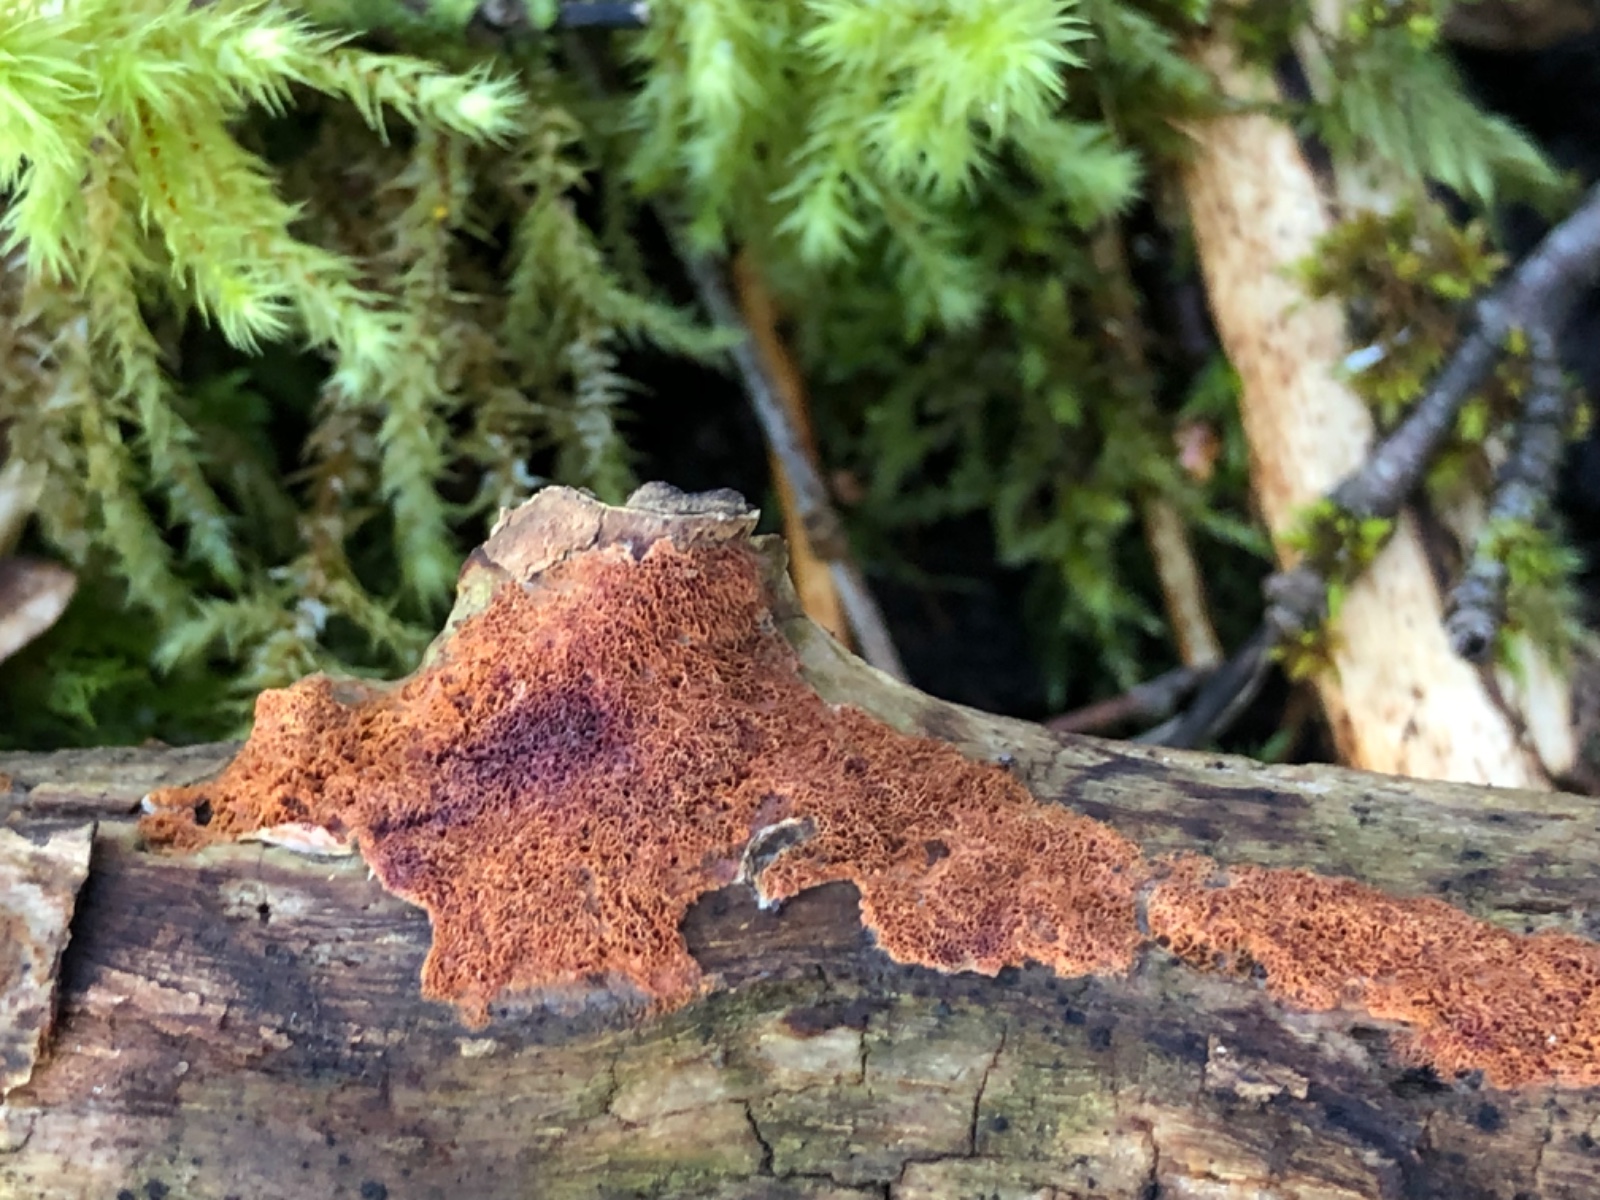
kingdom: Fungi
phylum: Basidiomycota
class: Agaricomycetes
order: Polyporales
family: Irpicaceae
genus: Ceriporia
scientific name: Ceriporia
